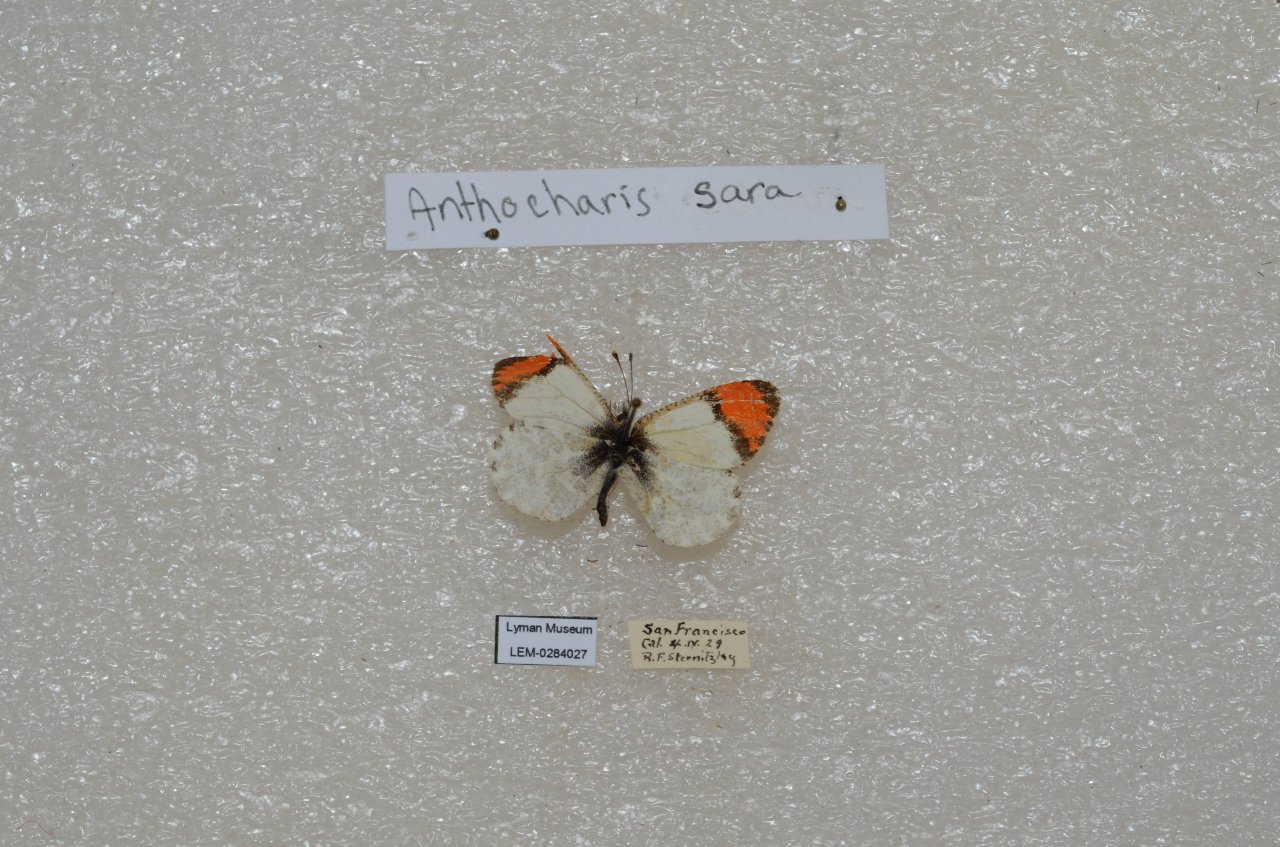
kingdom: Animalia
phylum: Arthropoda
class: Insecta
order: Lepidoptera
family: Pieridae
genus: Anthocharis
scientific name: Anthocharis sara
